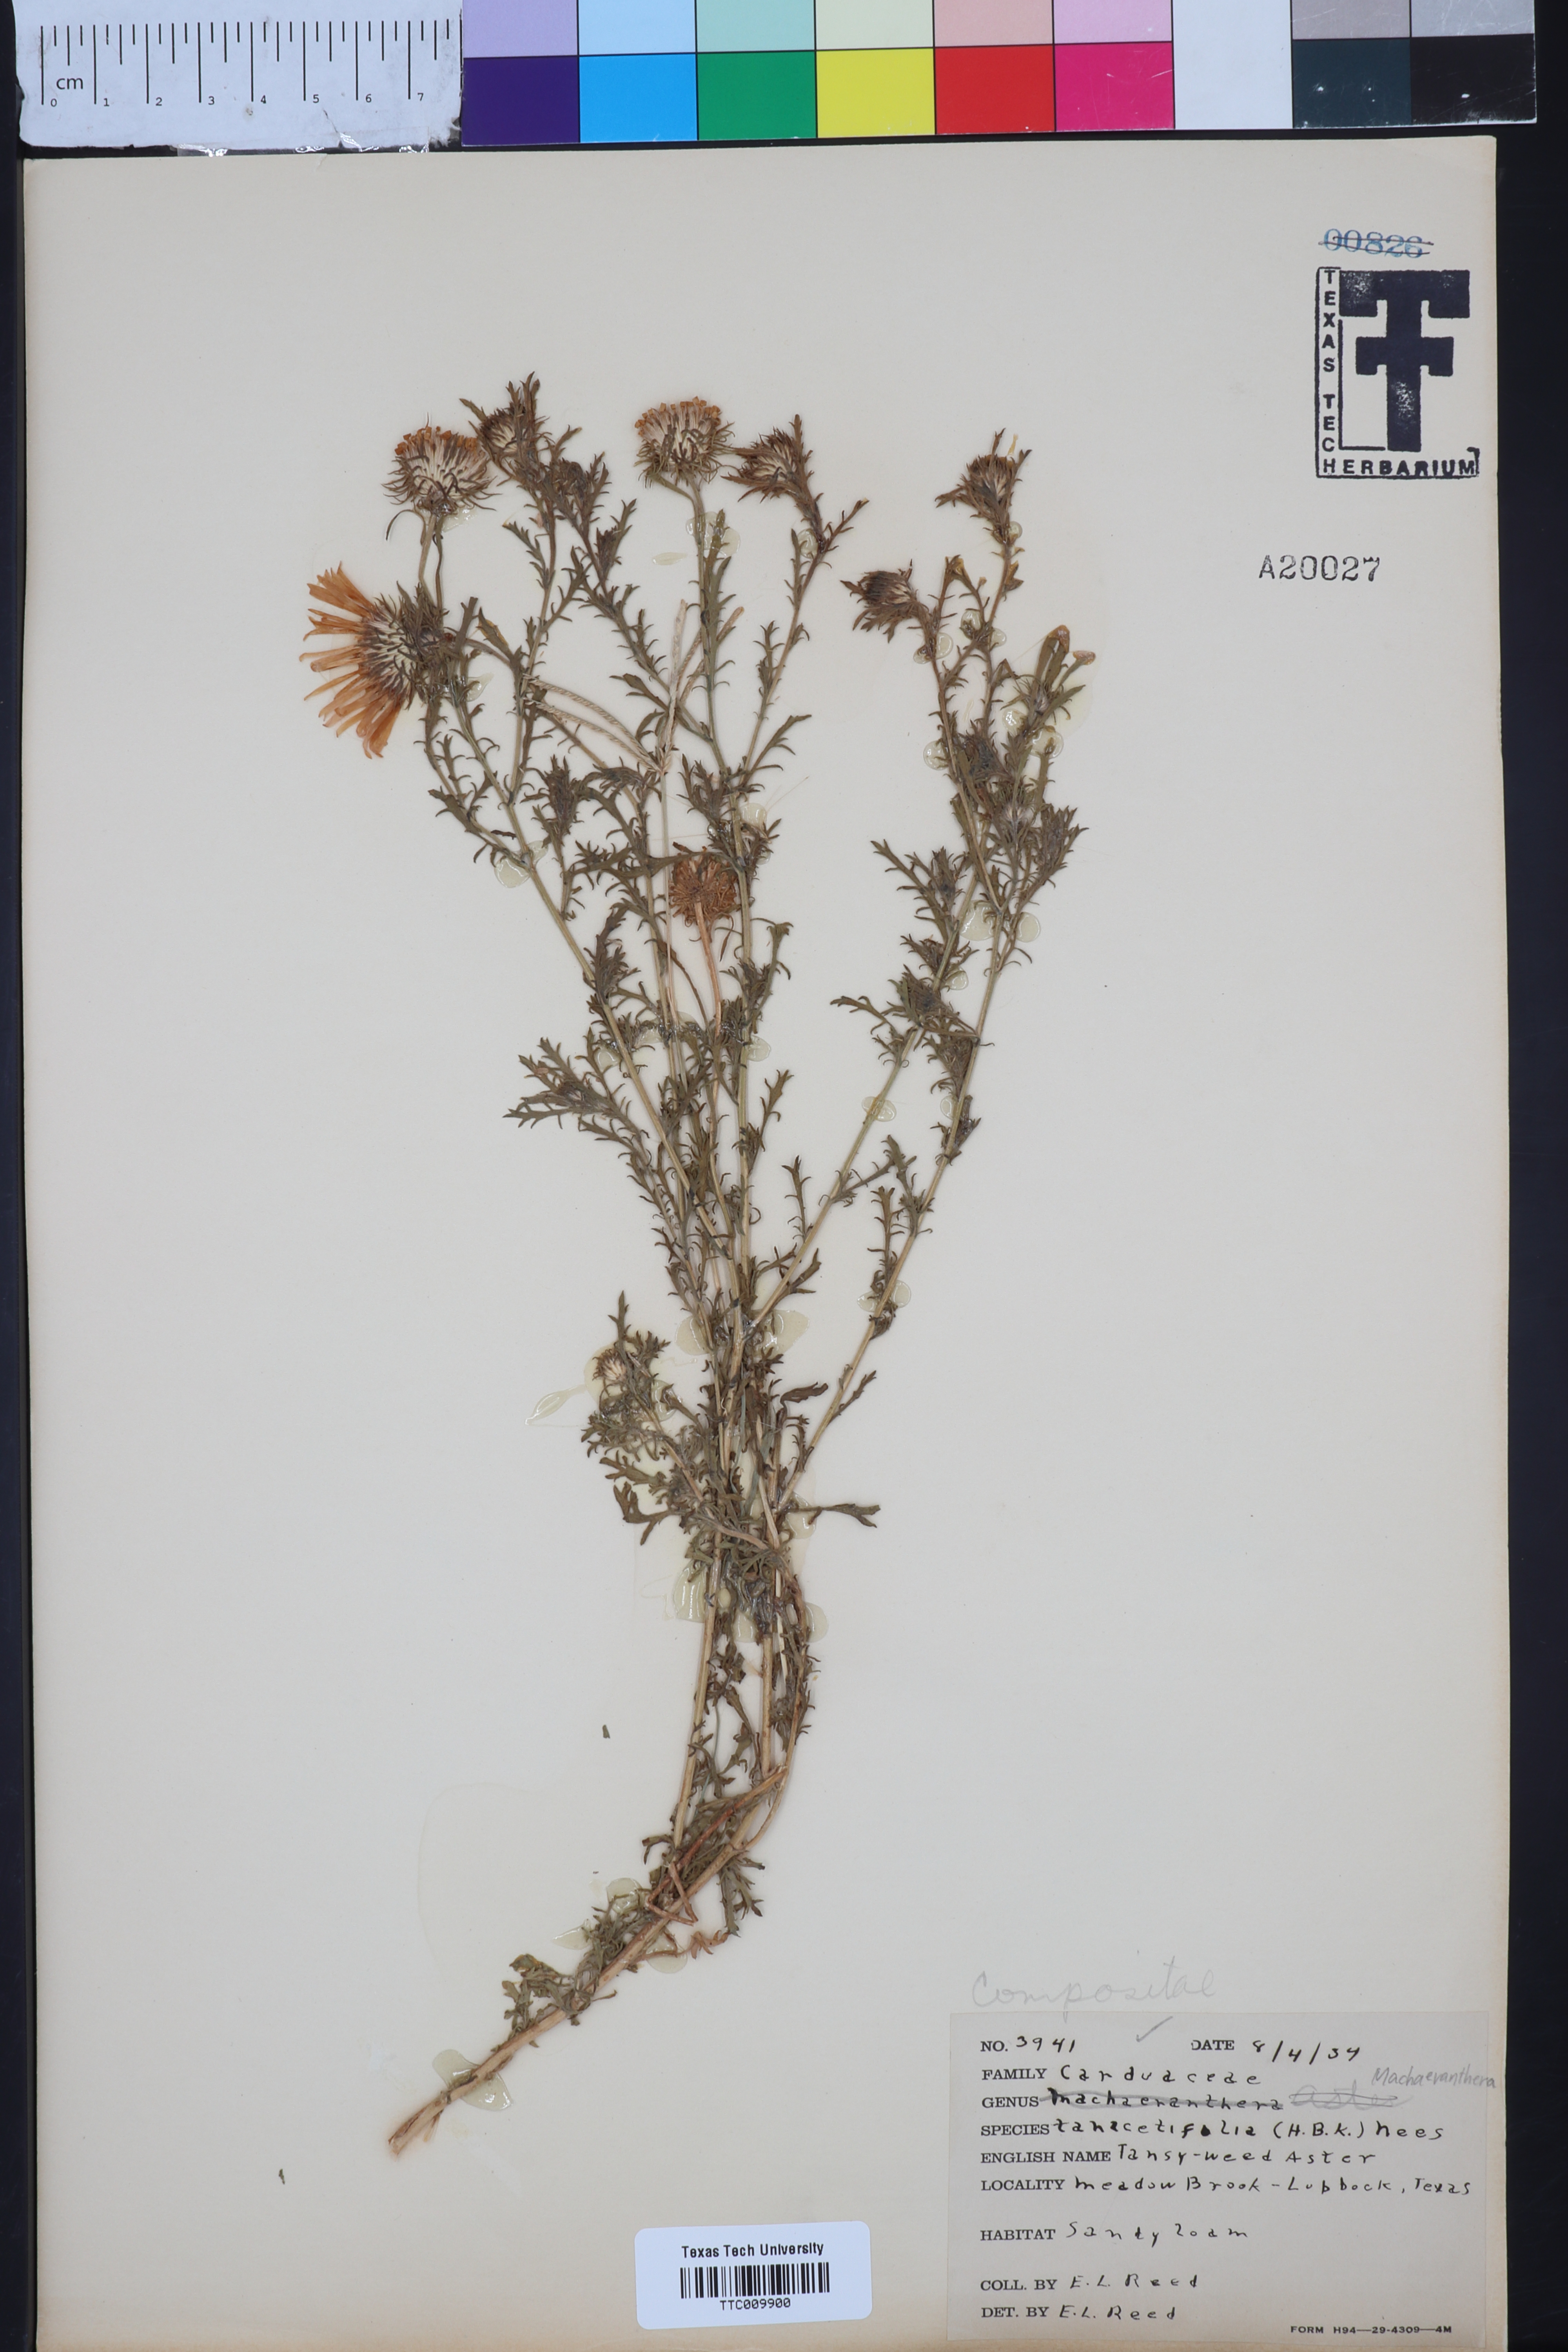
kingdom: Plantae
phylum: Tracheophyta
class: Magnoliopsida
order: Asterales
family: Asteraceae
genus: Machaeranthera
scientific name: Machaeranthera tanacetifolia
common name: Tansy-aster
